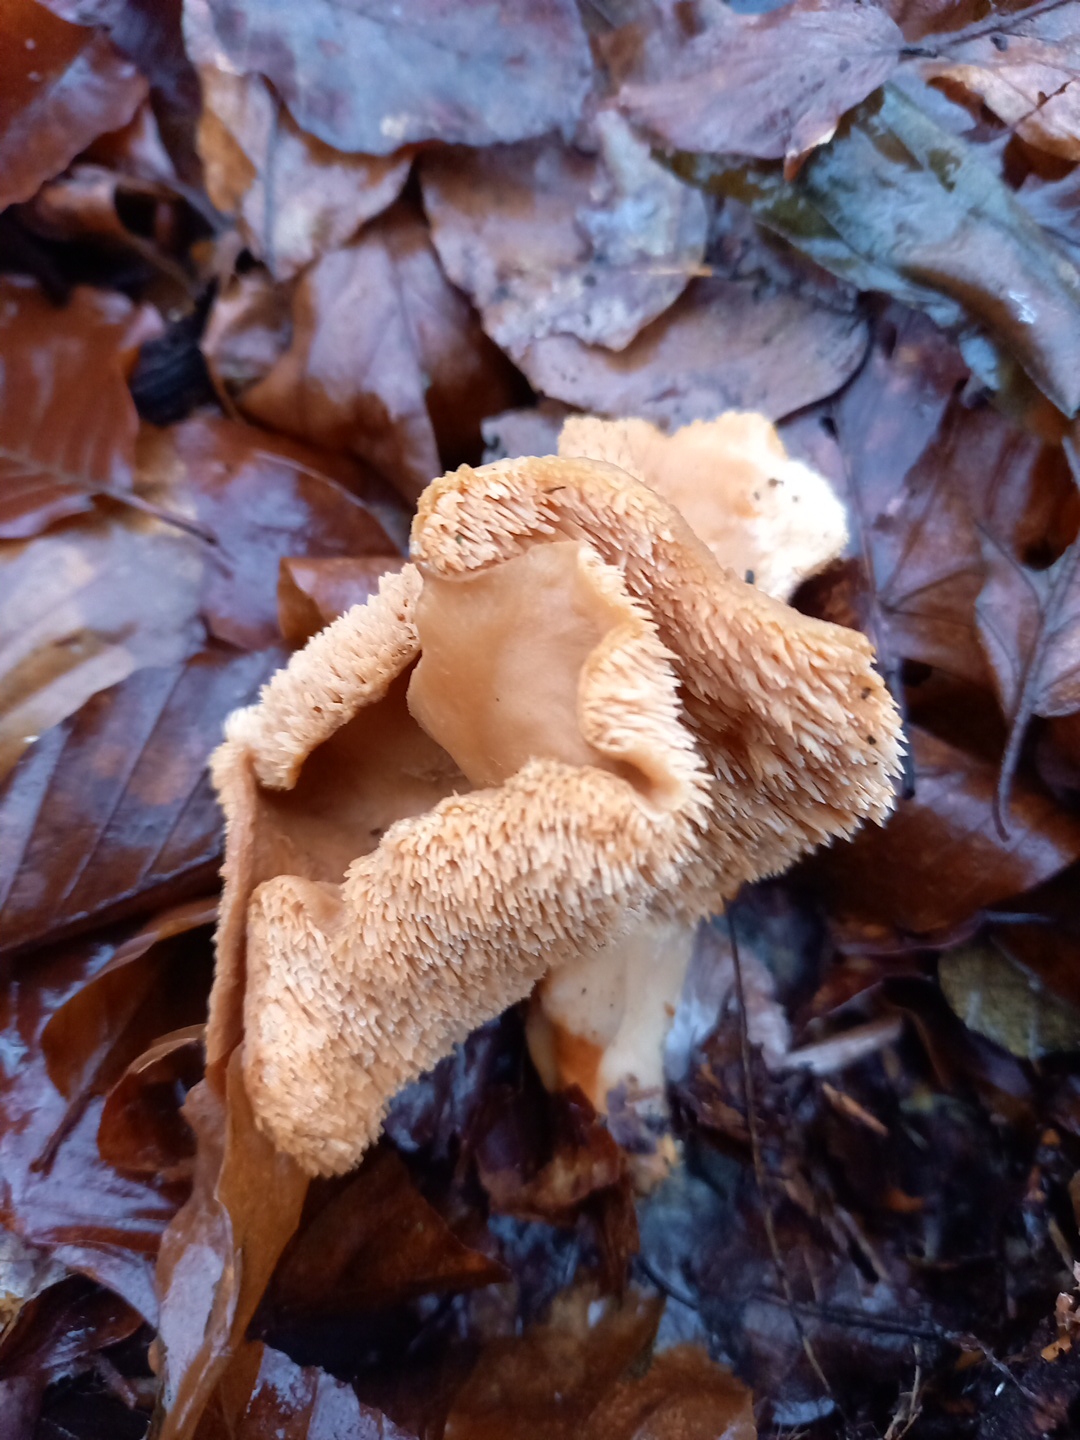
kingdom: Fungi
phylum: Basidiomycota
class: Agaricomycetes
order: Cantharellales
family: Hydnaceae
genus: Hydnum
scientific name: Hydnum
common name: pigsvamp
